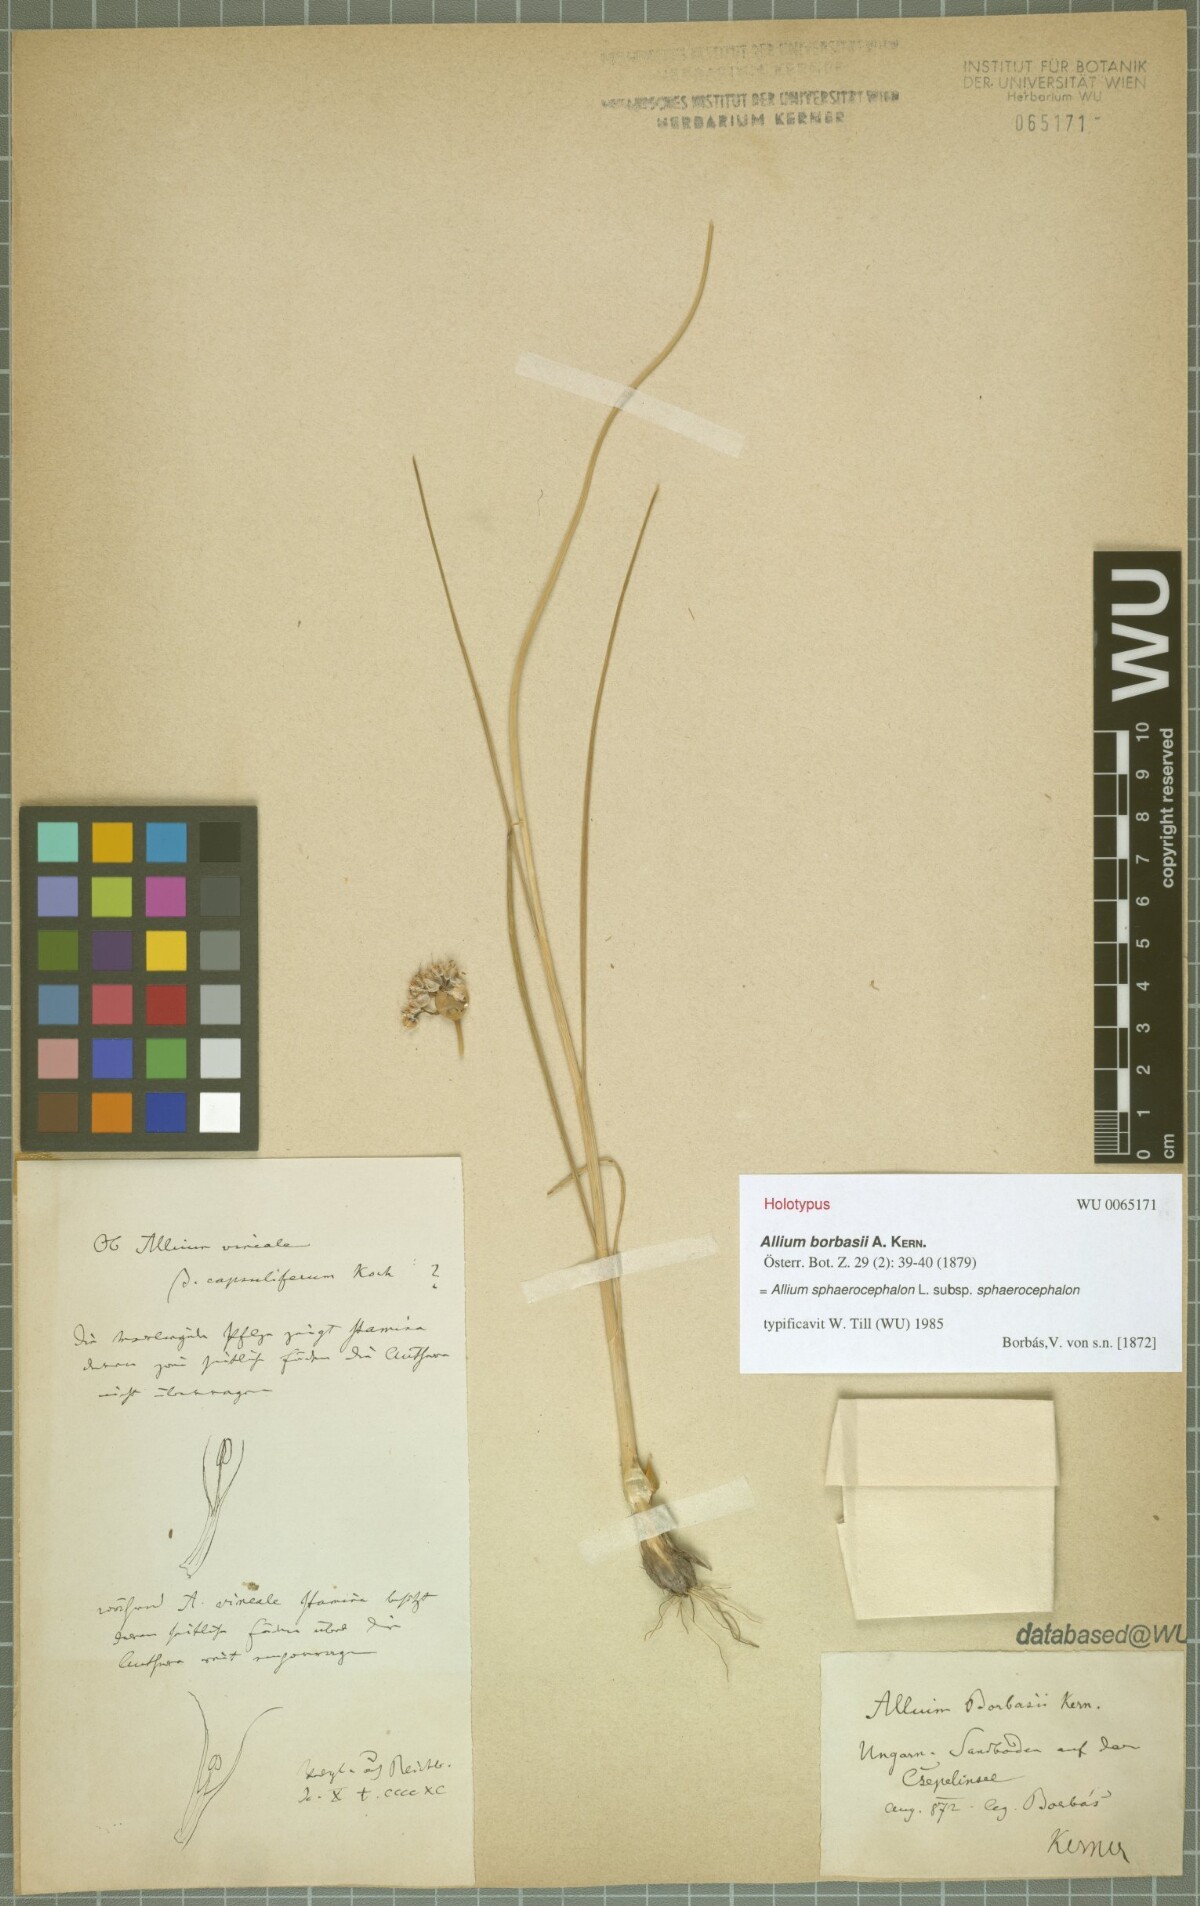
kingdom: Plantae
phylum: Tracheophyta
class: Liliopsida
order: Asparagales
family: Amaryllidaceae
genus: Allium
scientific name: Allium sphaerocephalon
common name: Round-headed leek
